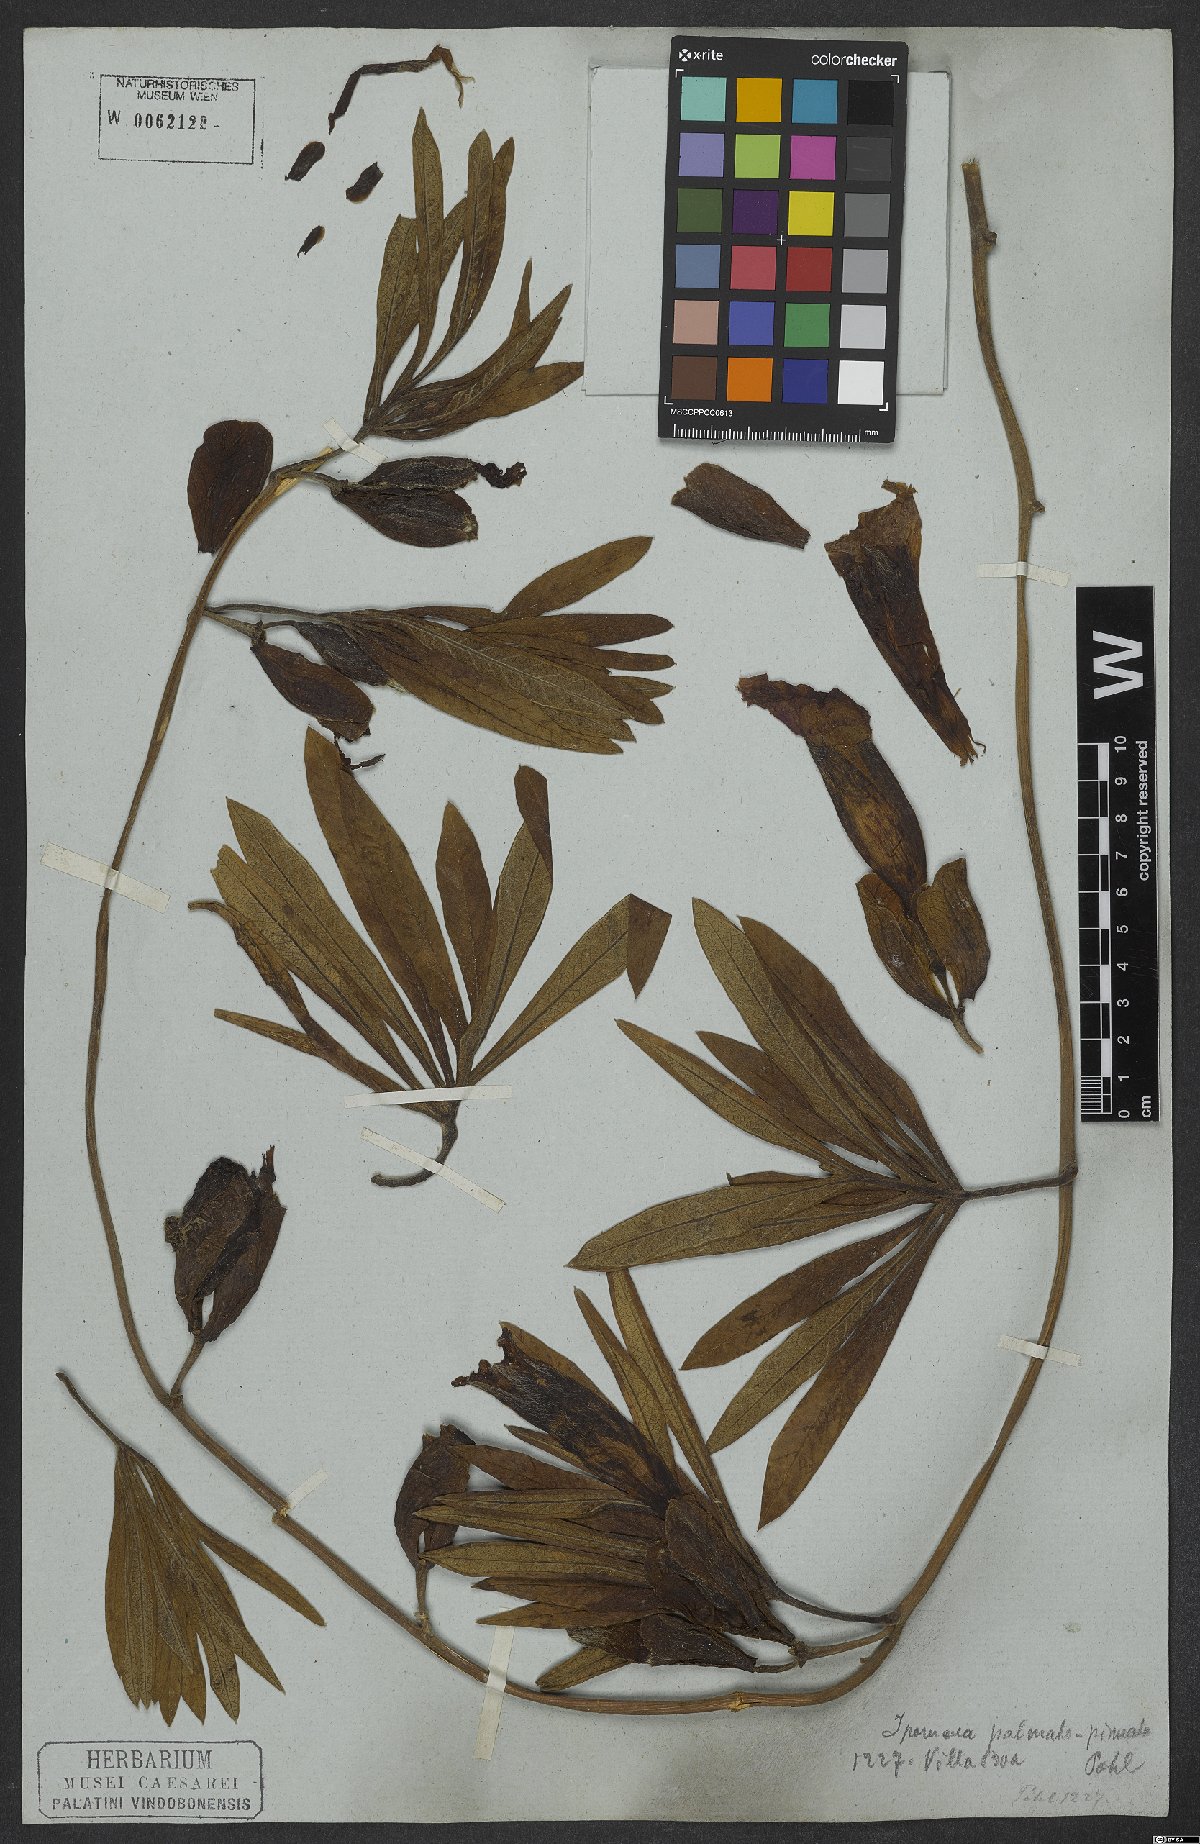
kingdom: Plantae
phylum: Tracheophyta
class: Magnoliopsida
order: Solanales
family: Convolvulaceae
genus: Ipomoea
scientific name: Ipomoea gigantea
